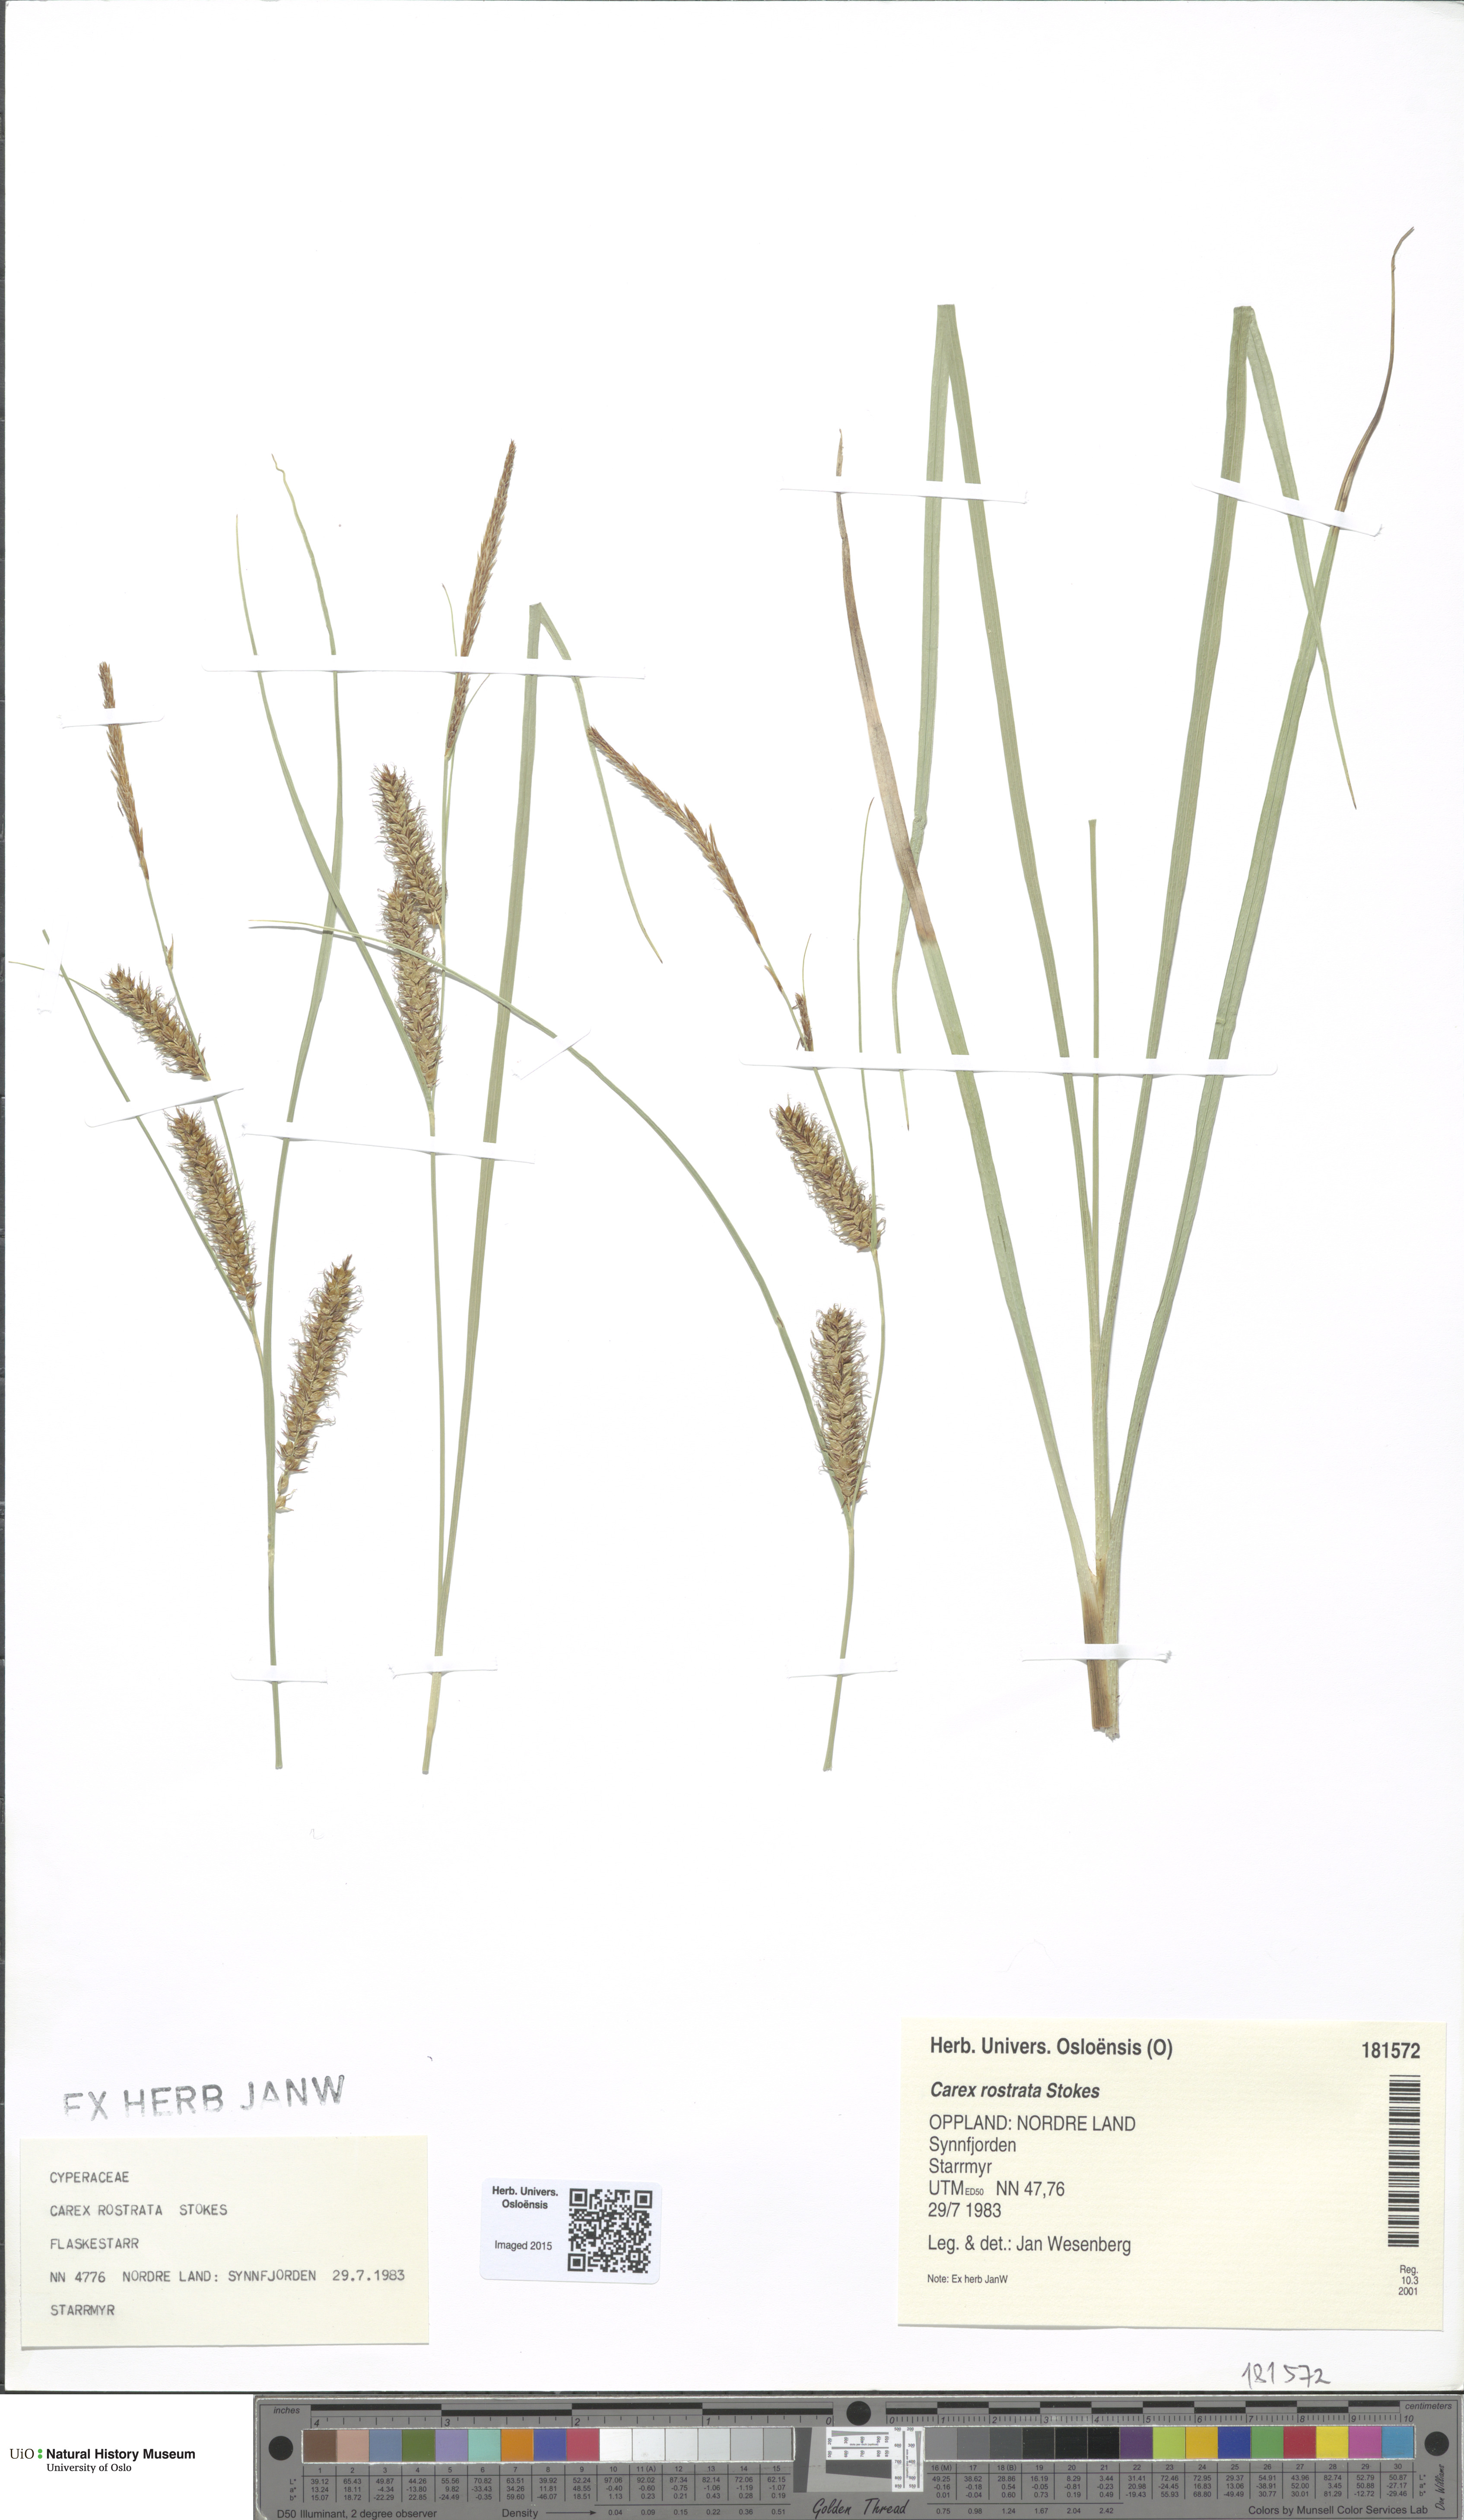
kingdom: Plantae
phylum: Tracheophyta
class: Liliopsida
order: Poales
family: Cyperaceae
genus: Carex
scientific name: Carex rostrata
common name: Bottle sedge
